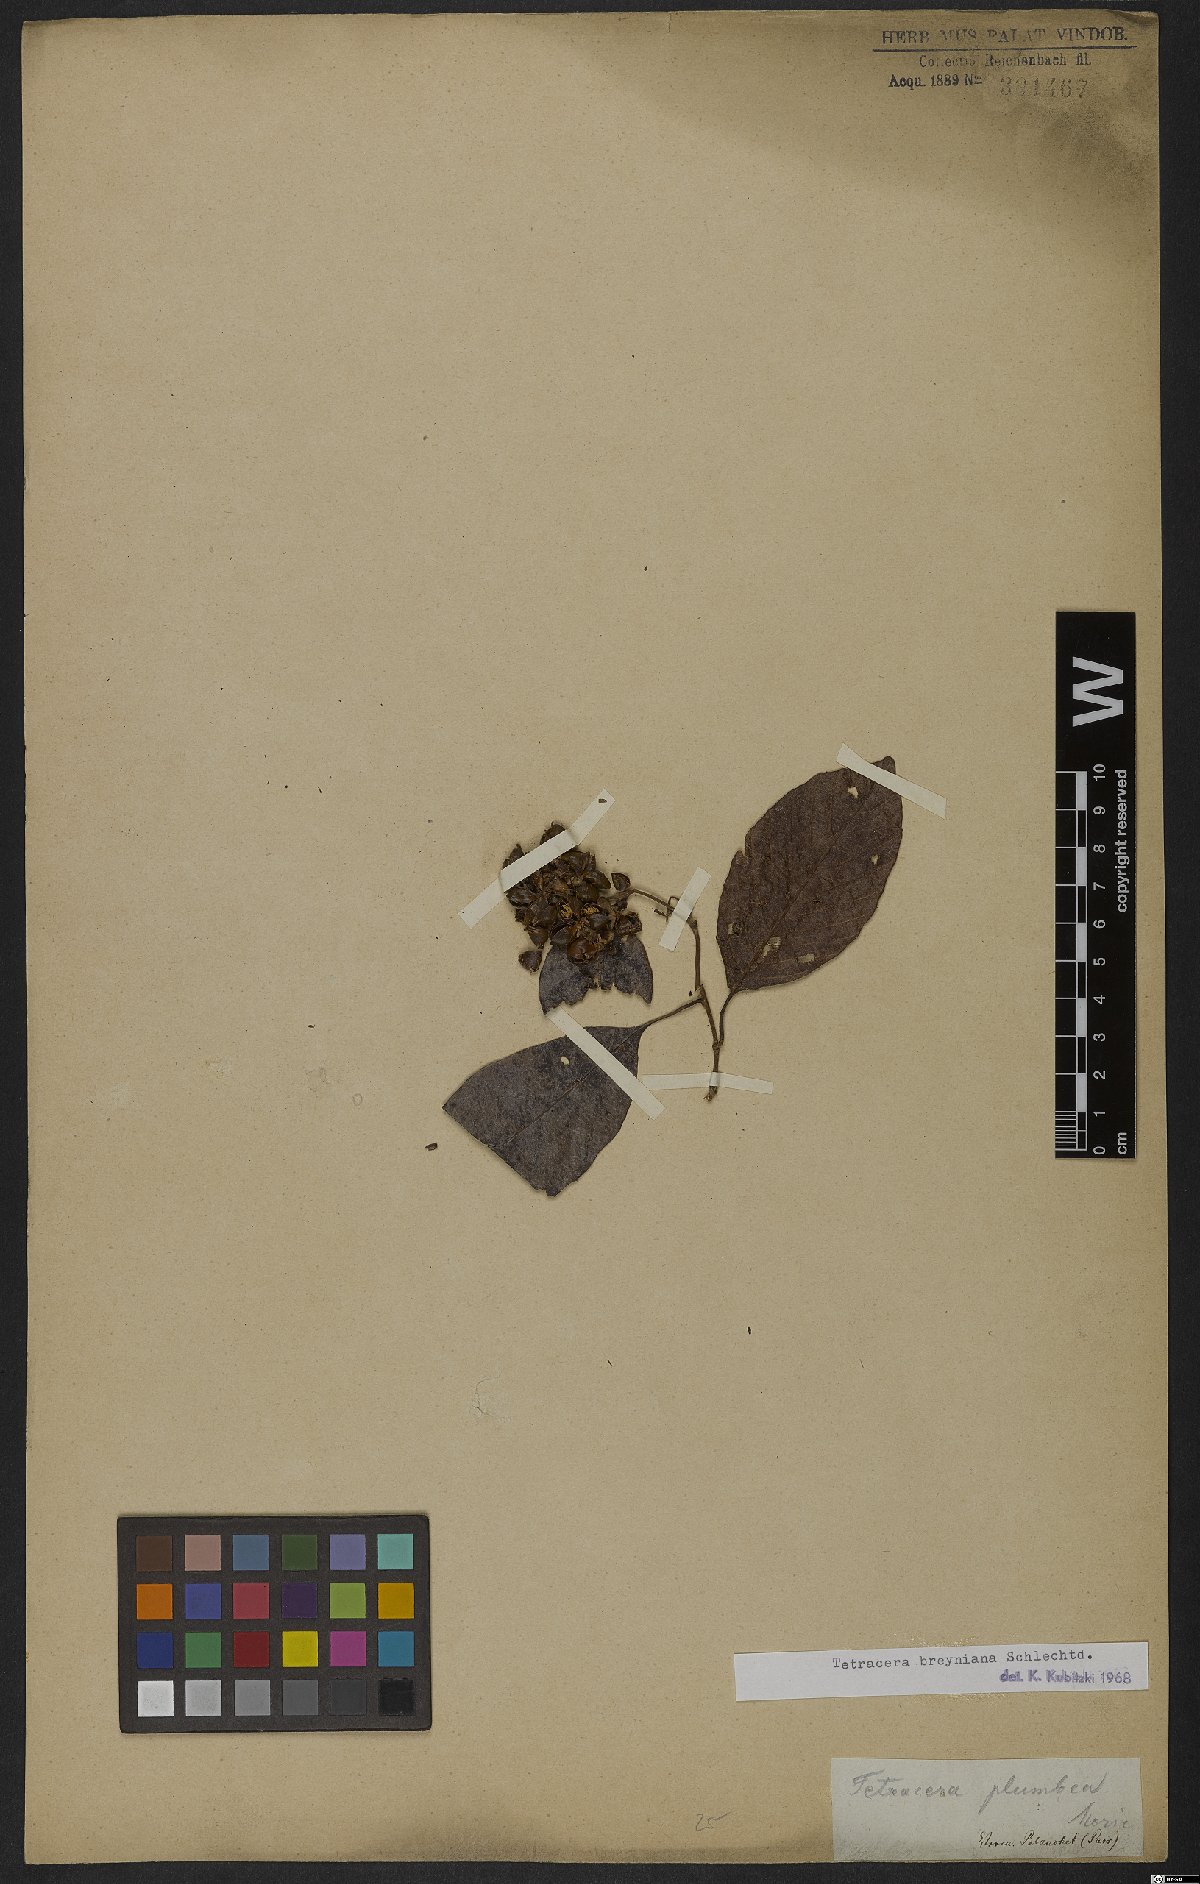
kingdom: Plantae
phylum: Tracheophyta
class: Magnoliopsida
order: Dilleniales
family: Dilleniaceae
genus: Tetracera
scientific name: Tetracera breyniana
